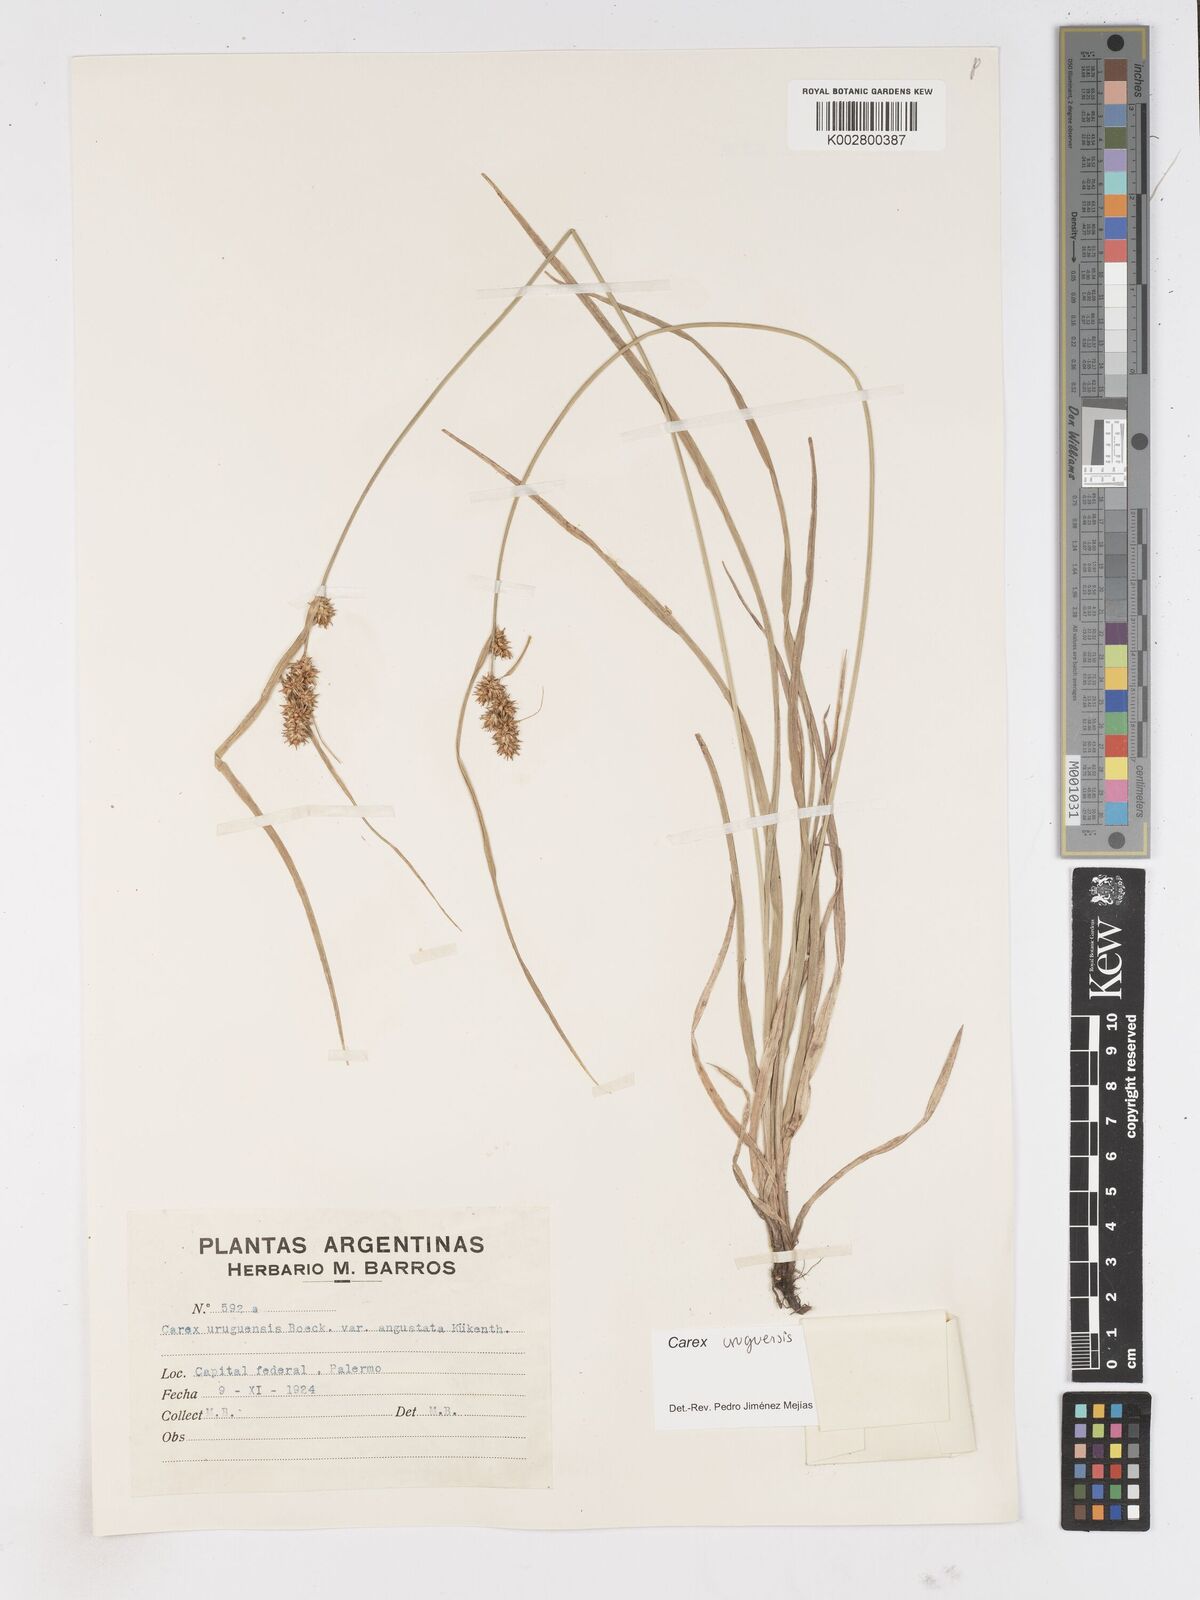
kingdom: Plantae
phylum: Tracheophyta
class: Liliopsida
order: Poales
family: Cyperaceae
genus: Carex
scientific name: Carex uruguensis
